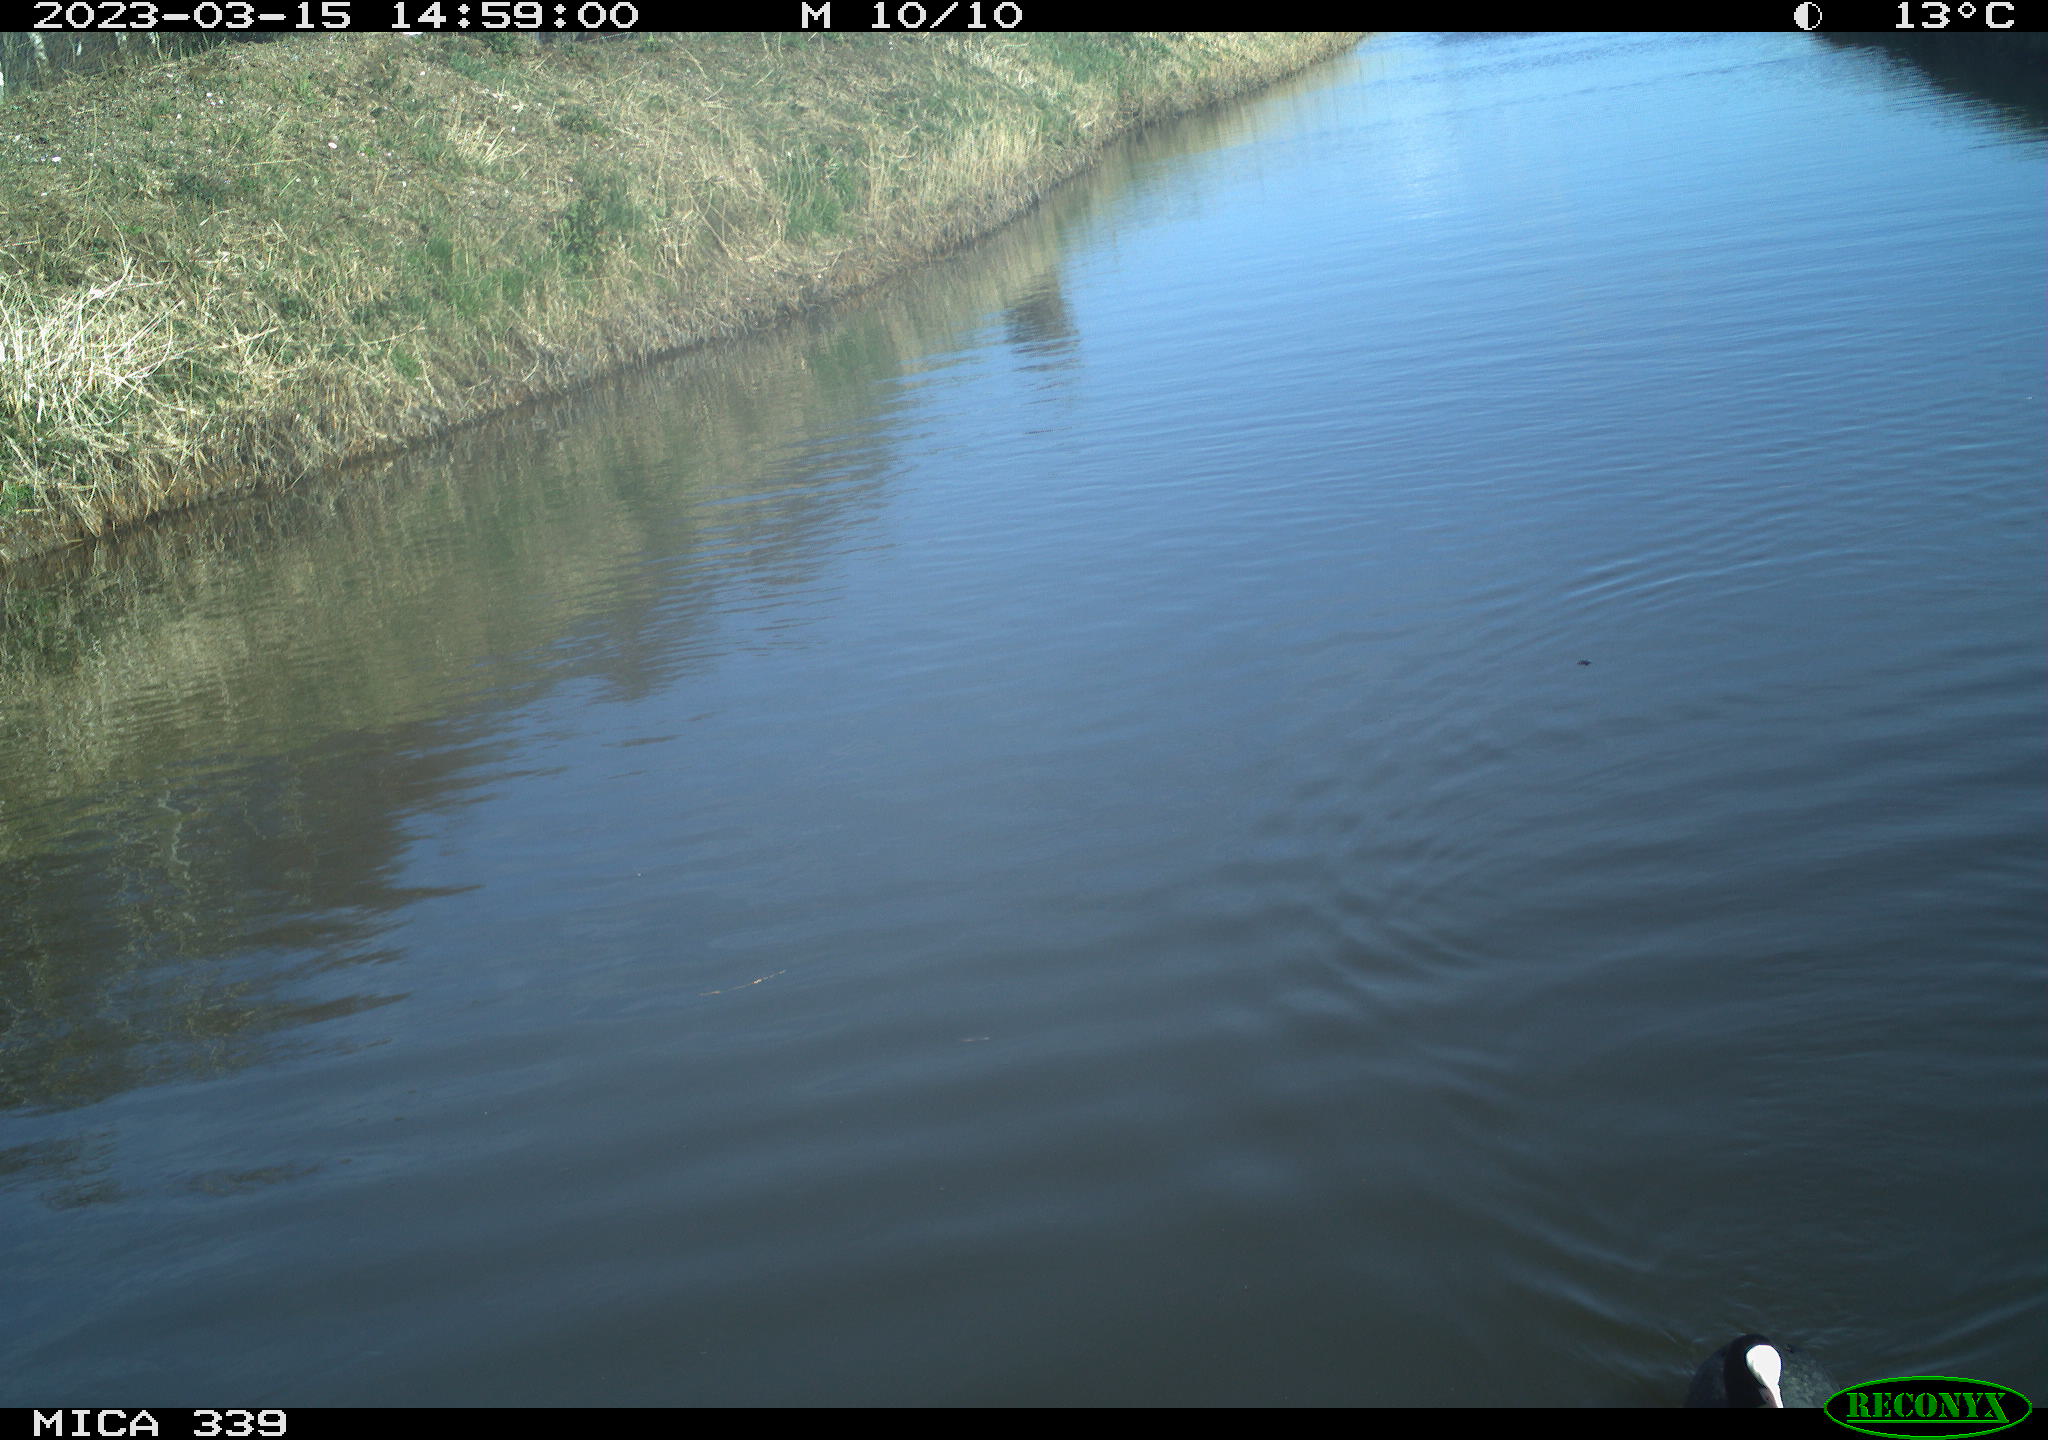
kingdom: Animalia
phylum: Chordata
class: Aves
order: Gruiformes
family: Rallidae
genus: Fulica
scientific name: Fulica atra
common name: Eurasian coot
